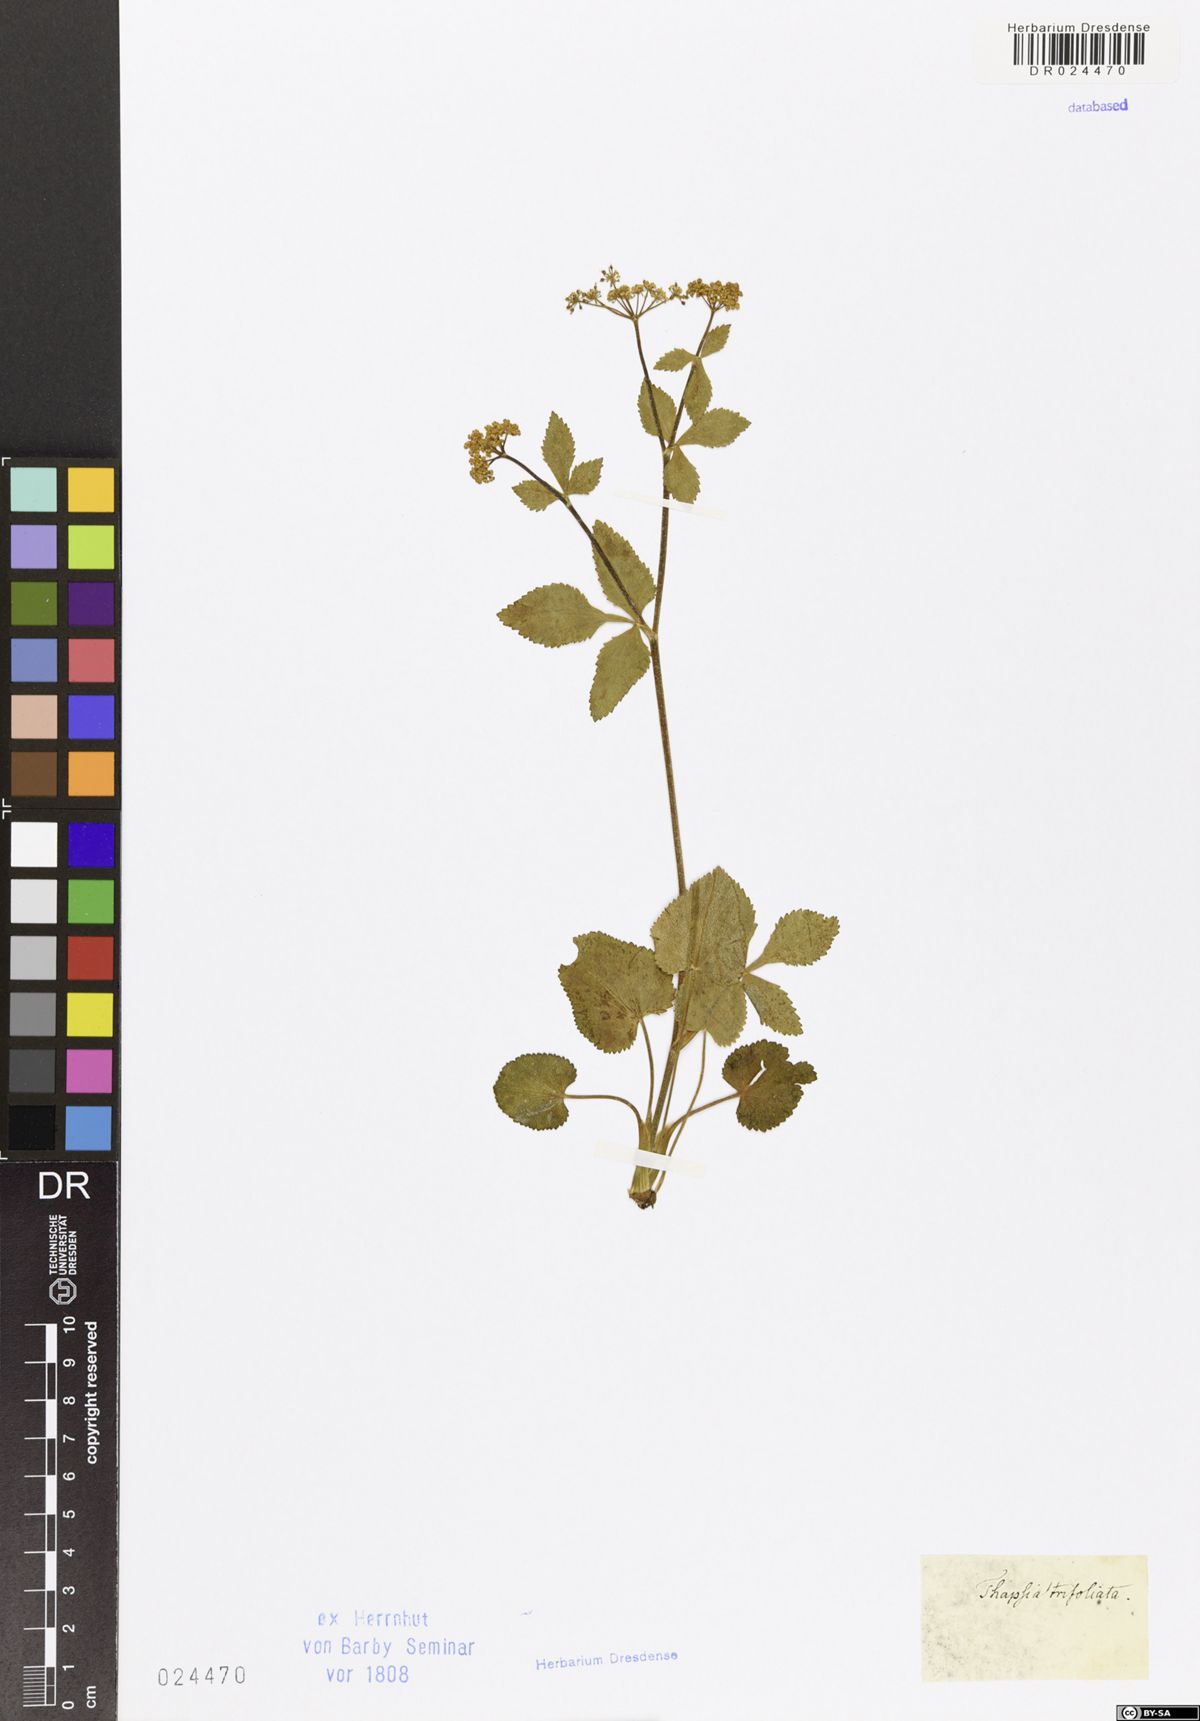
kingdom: Plantae
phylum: Tracheophyta
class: Magnoliopsida
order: Apiales
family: Apiaceae
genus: Thaspium
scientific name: Thaspium trifoliatum
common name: Purple meadow-parsnip
